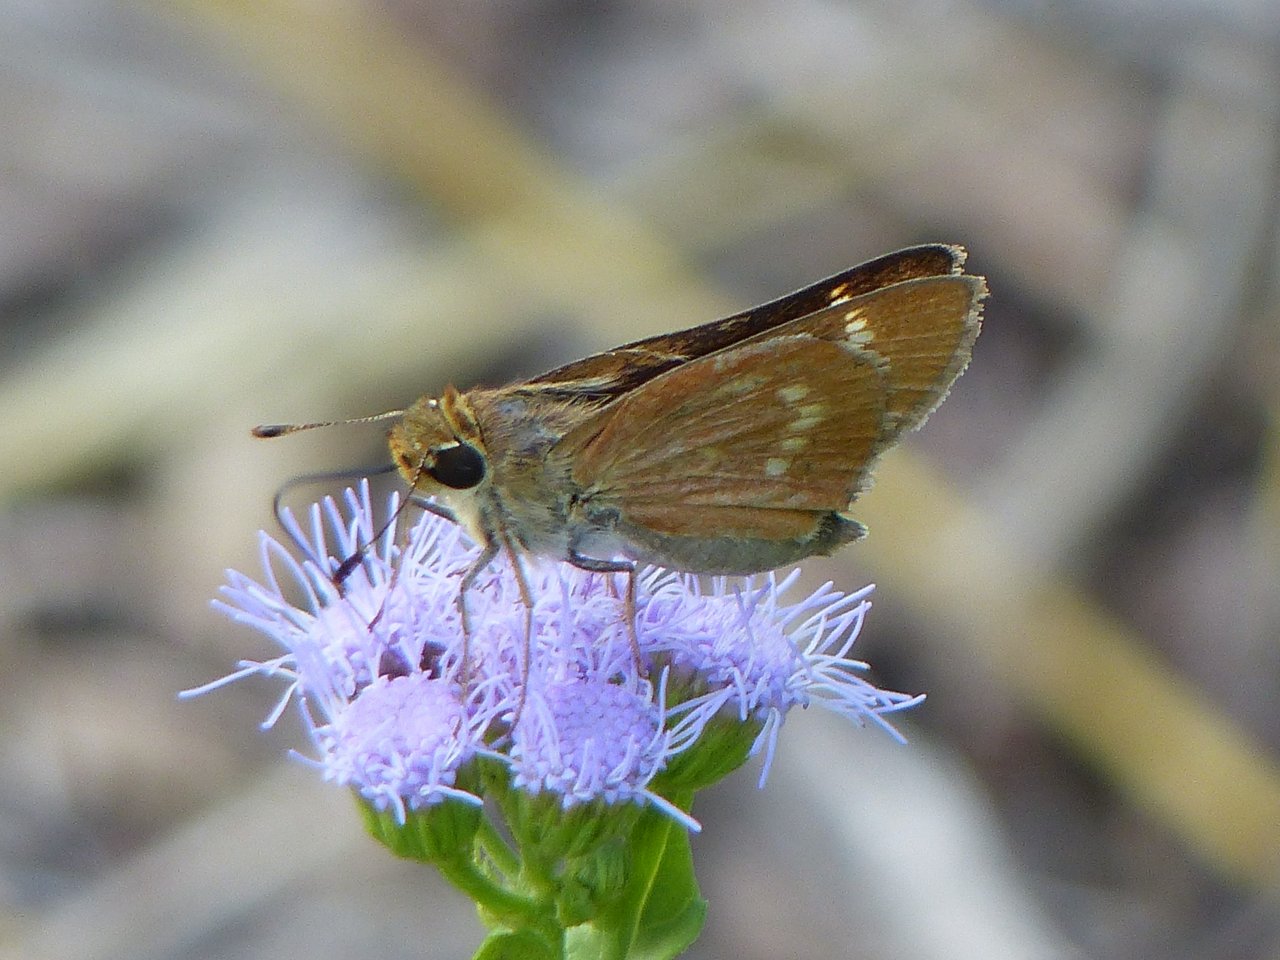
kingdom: Animalia
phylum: Arthropoda
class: Insecta
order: Lepidoptera
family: Hesperiidae
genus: Mellana
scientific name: Mellana eulogius
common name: Common Mellana
